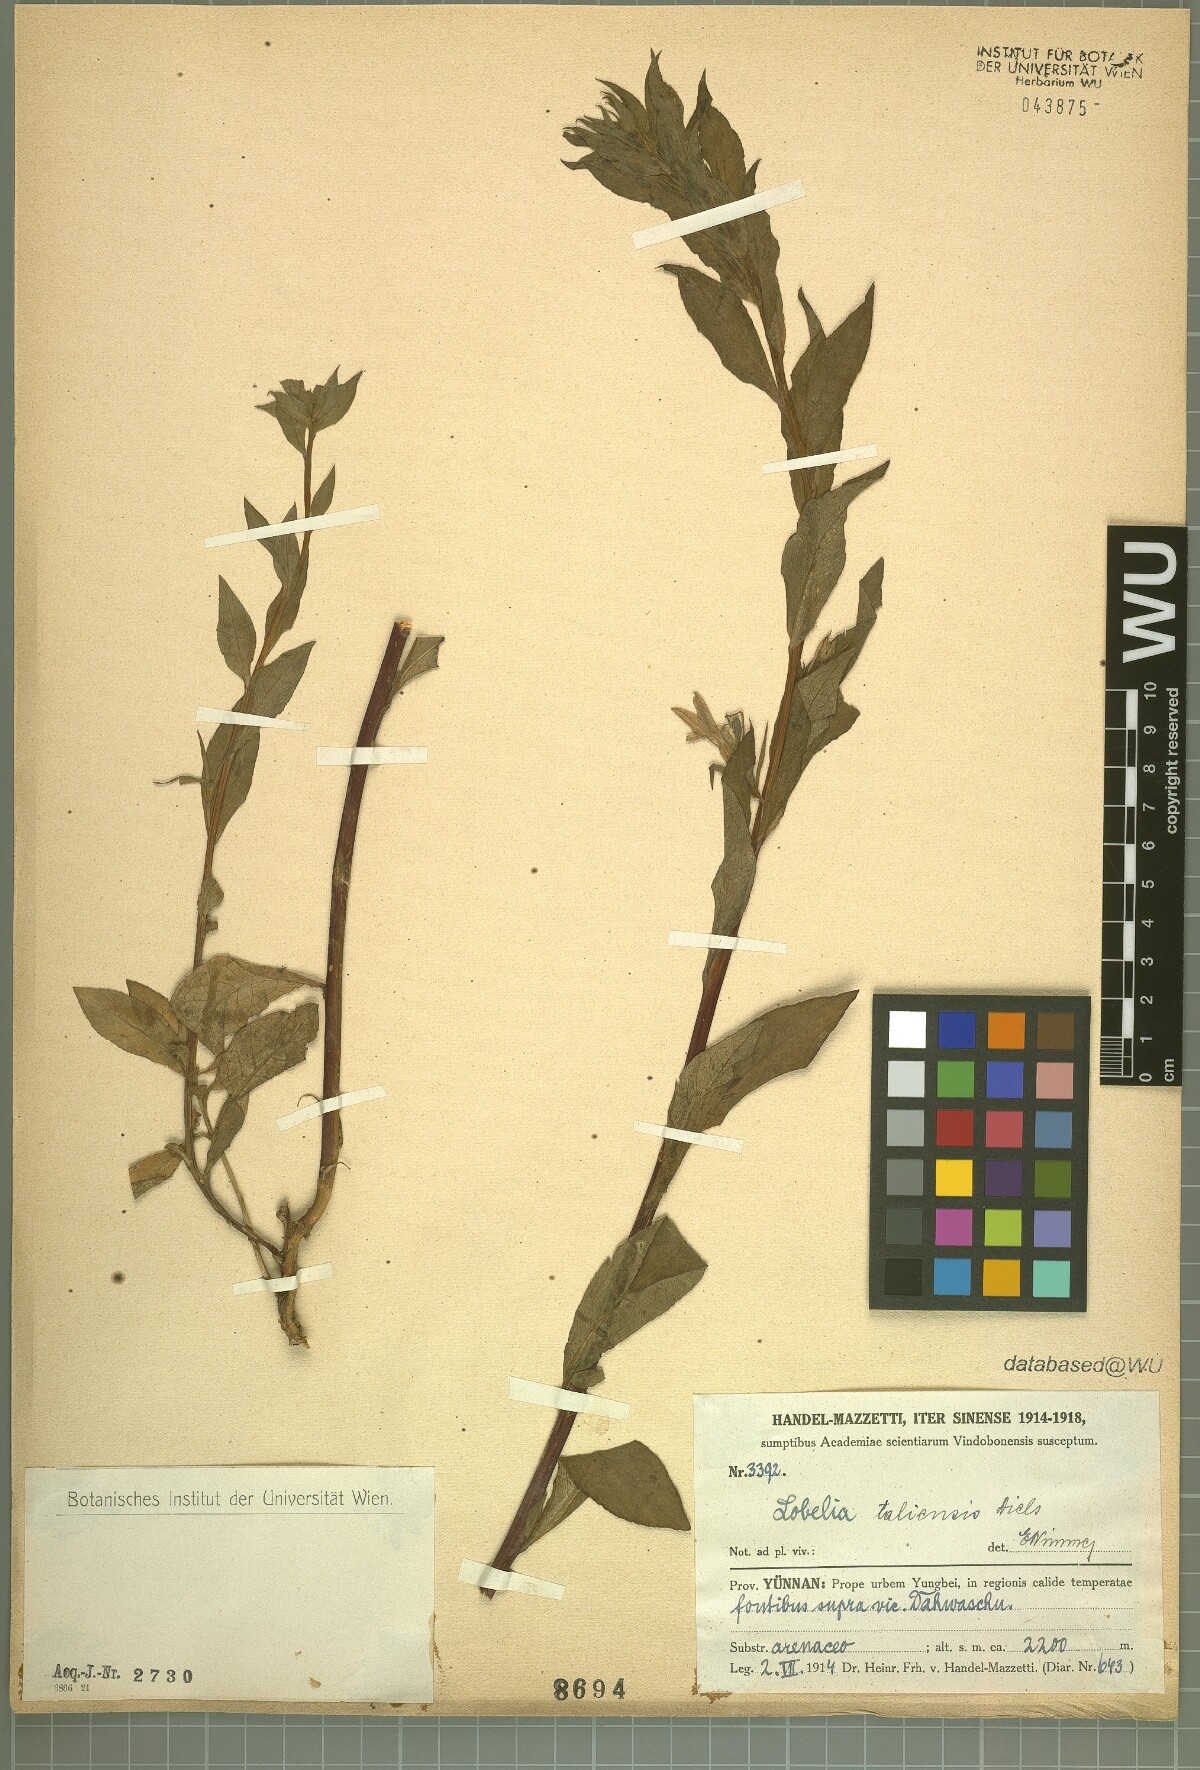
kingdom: Plantae
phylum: Tracheophyta
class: Magnoliopsida
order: Asterales
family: Campanulaceae
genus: Lobelia
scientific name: Lobelia taliensis
